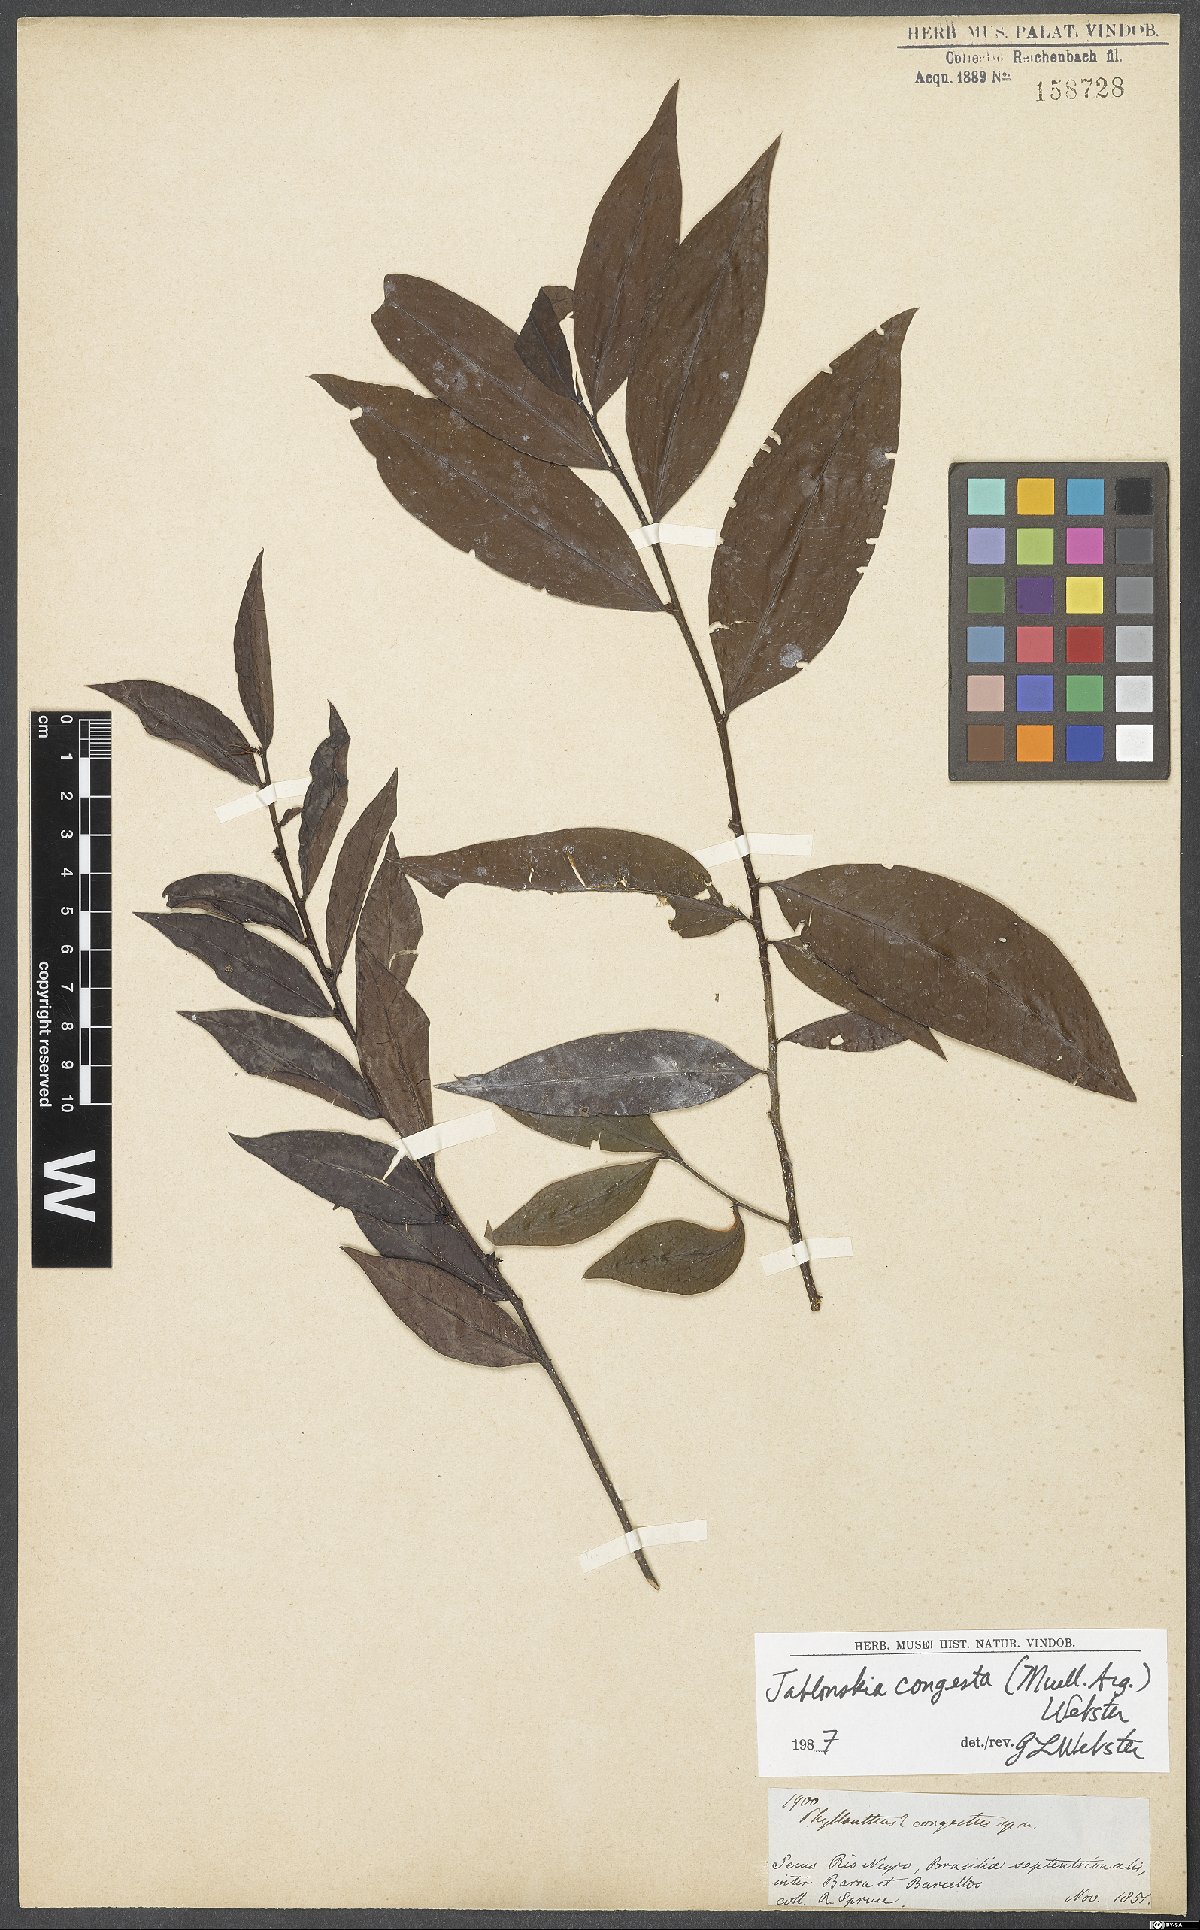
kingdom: Plantae
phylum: Tracheophyta
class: Magnoliopsida
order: Malpighiales
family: Phyllanthaceae
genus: Jablonskia
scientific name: Jablonskia congesta
